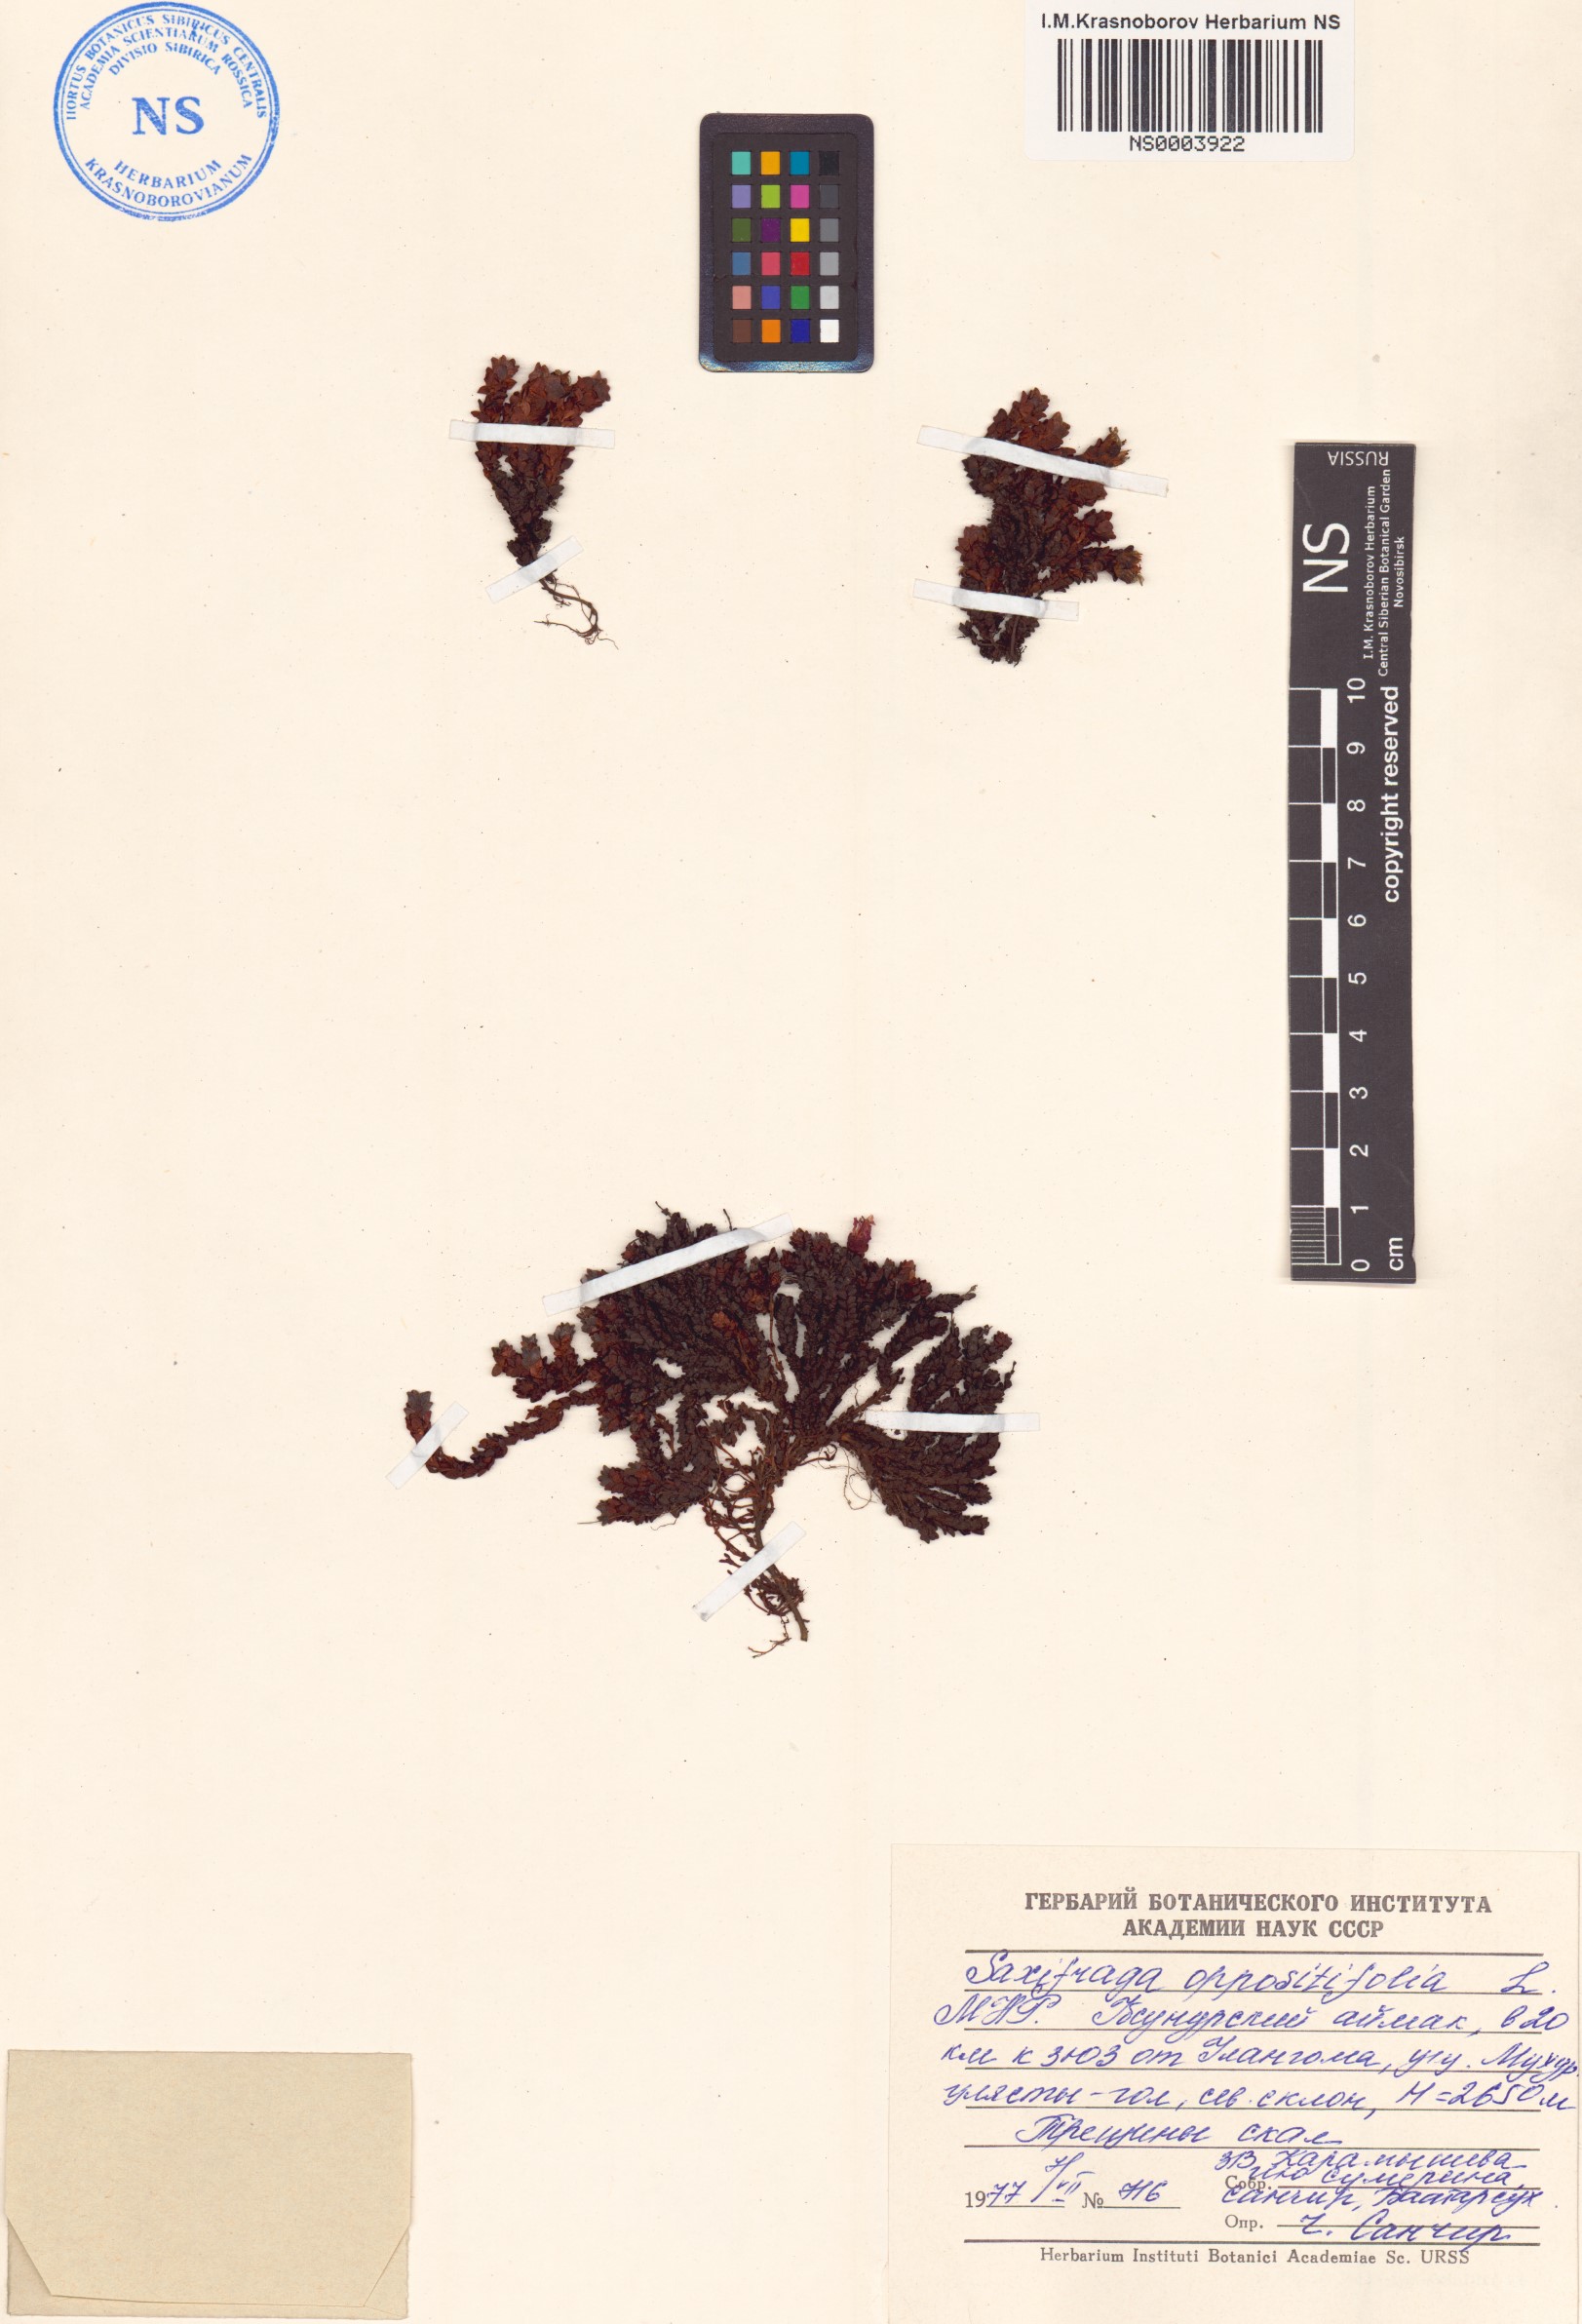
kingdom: Plantae
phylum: Tracheophyta
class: Magnoliopsida
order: Saxifragales
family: Saxifragaceae
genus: Saxifraga
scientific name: Saxifraga oppositifolia
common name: Purple saxifrage
